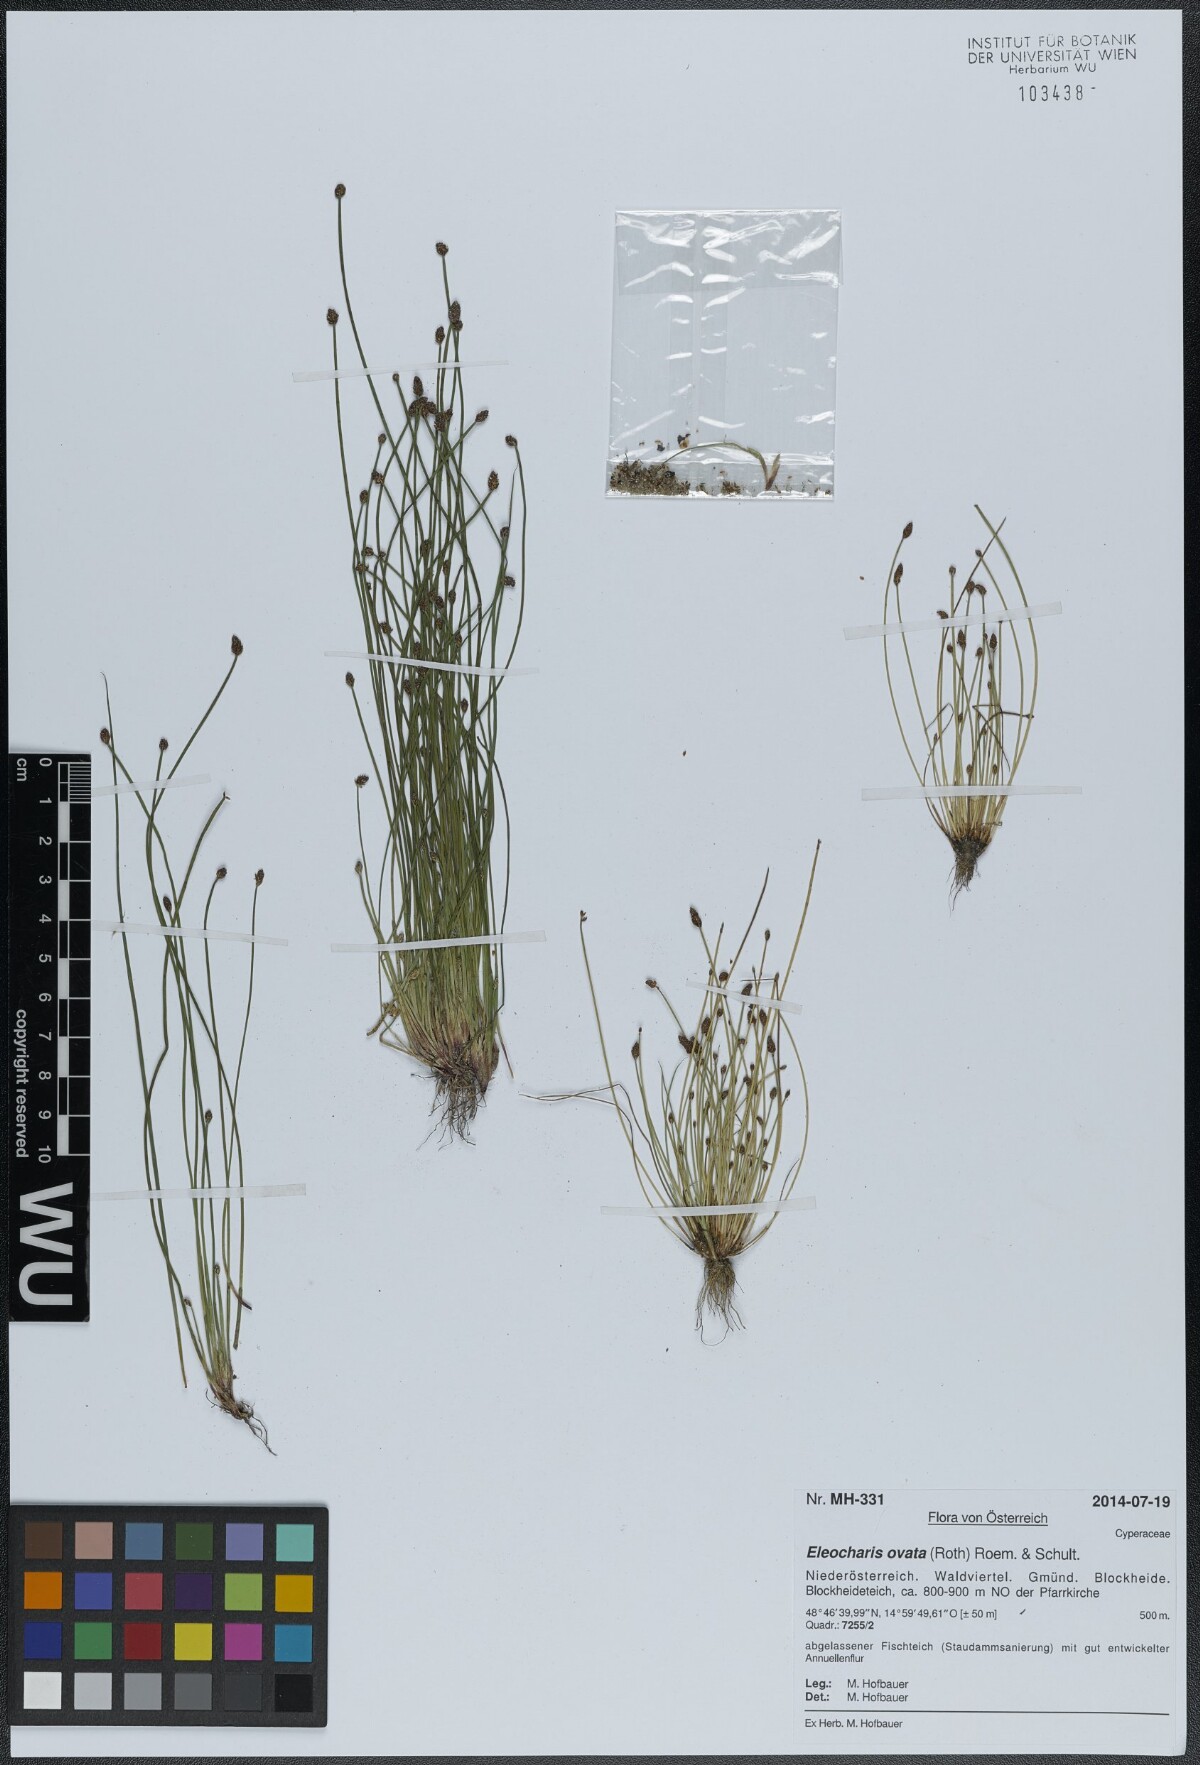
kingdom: Plantae
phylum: Tracheophyta
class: Liliopsida
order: Poales
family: Cyperaceae
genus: Eleocharis
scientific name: Eleocharis ovata
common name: Oval spike-rush
